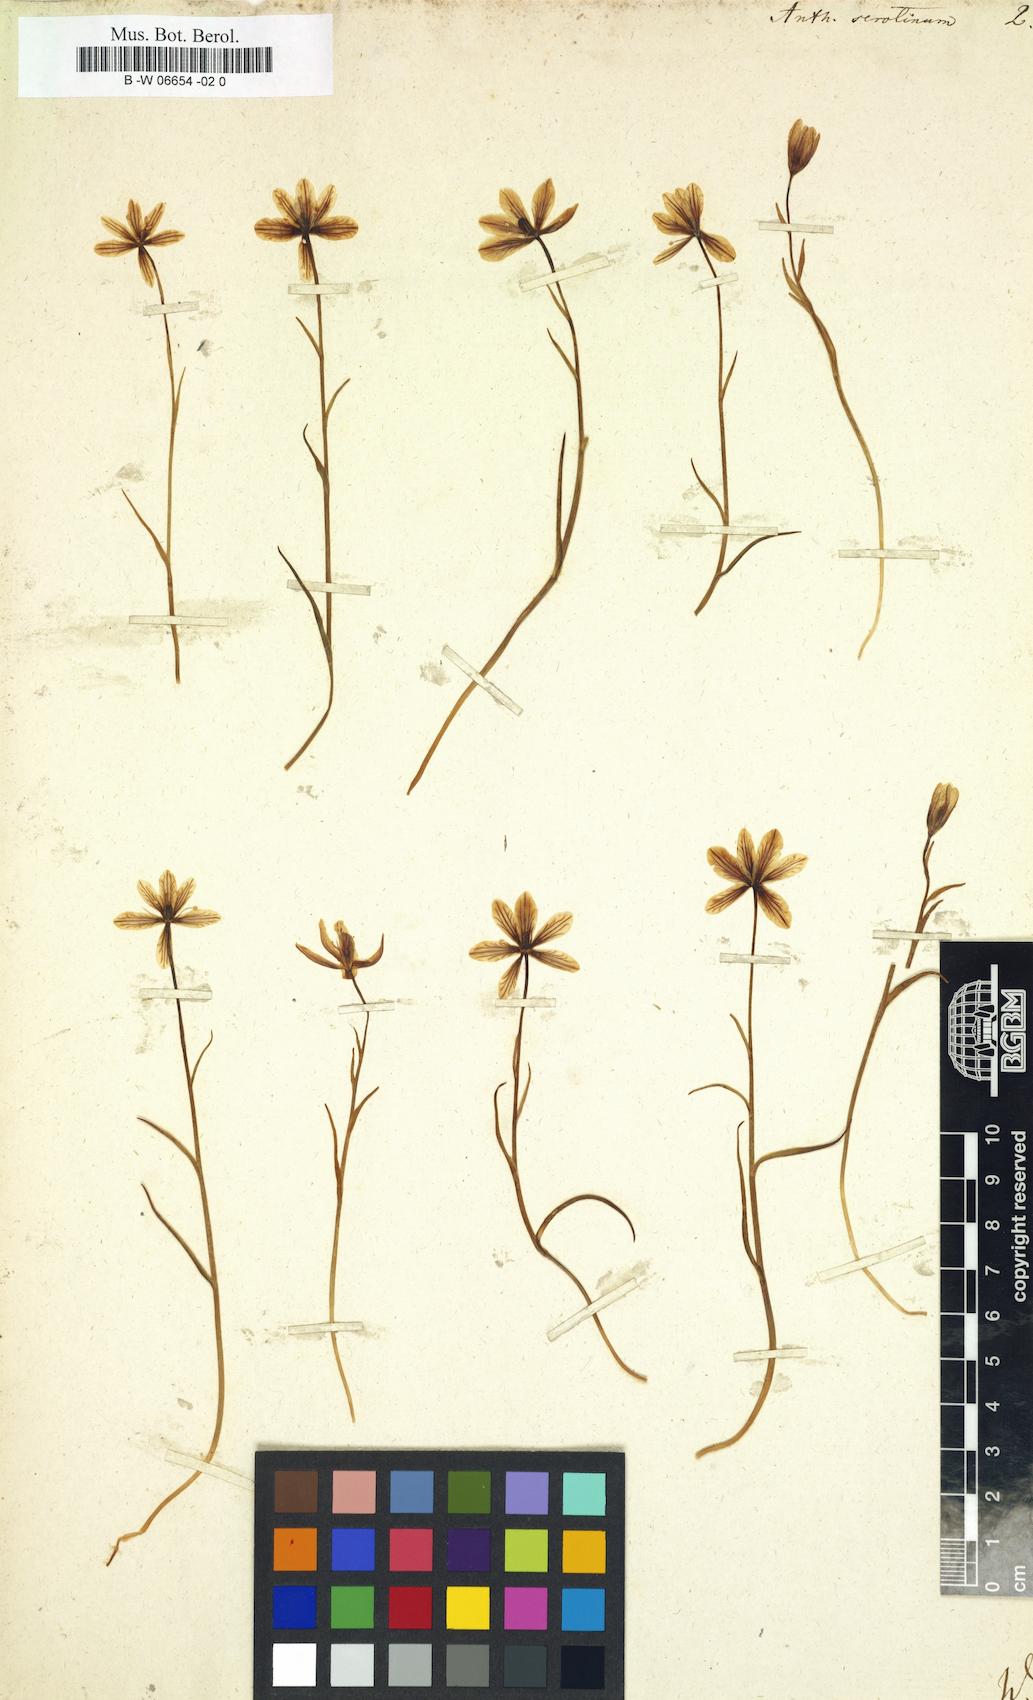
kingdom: Plantae
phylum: Tracheophyta
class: Liliopsida
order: Liliales
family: Liliaceae
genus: Gagea
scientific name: Gagea serotina
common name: Snowdon lily
